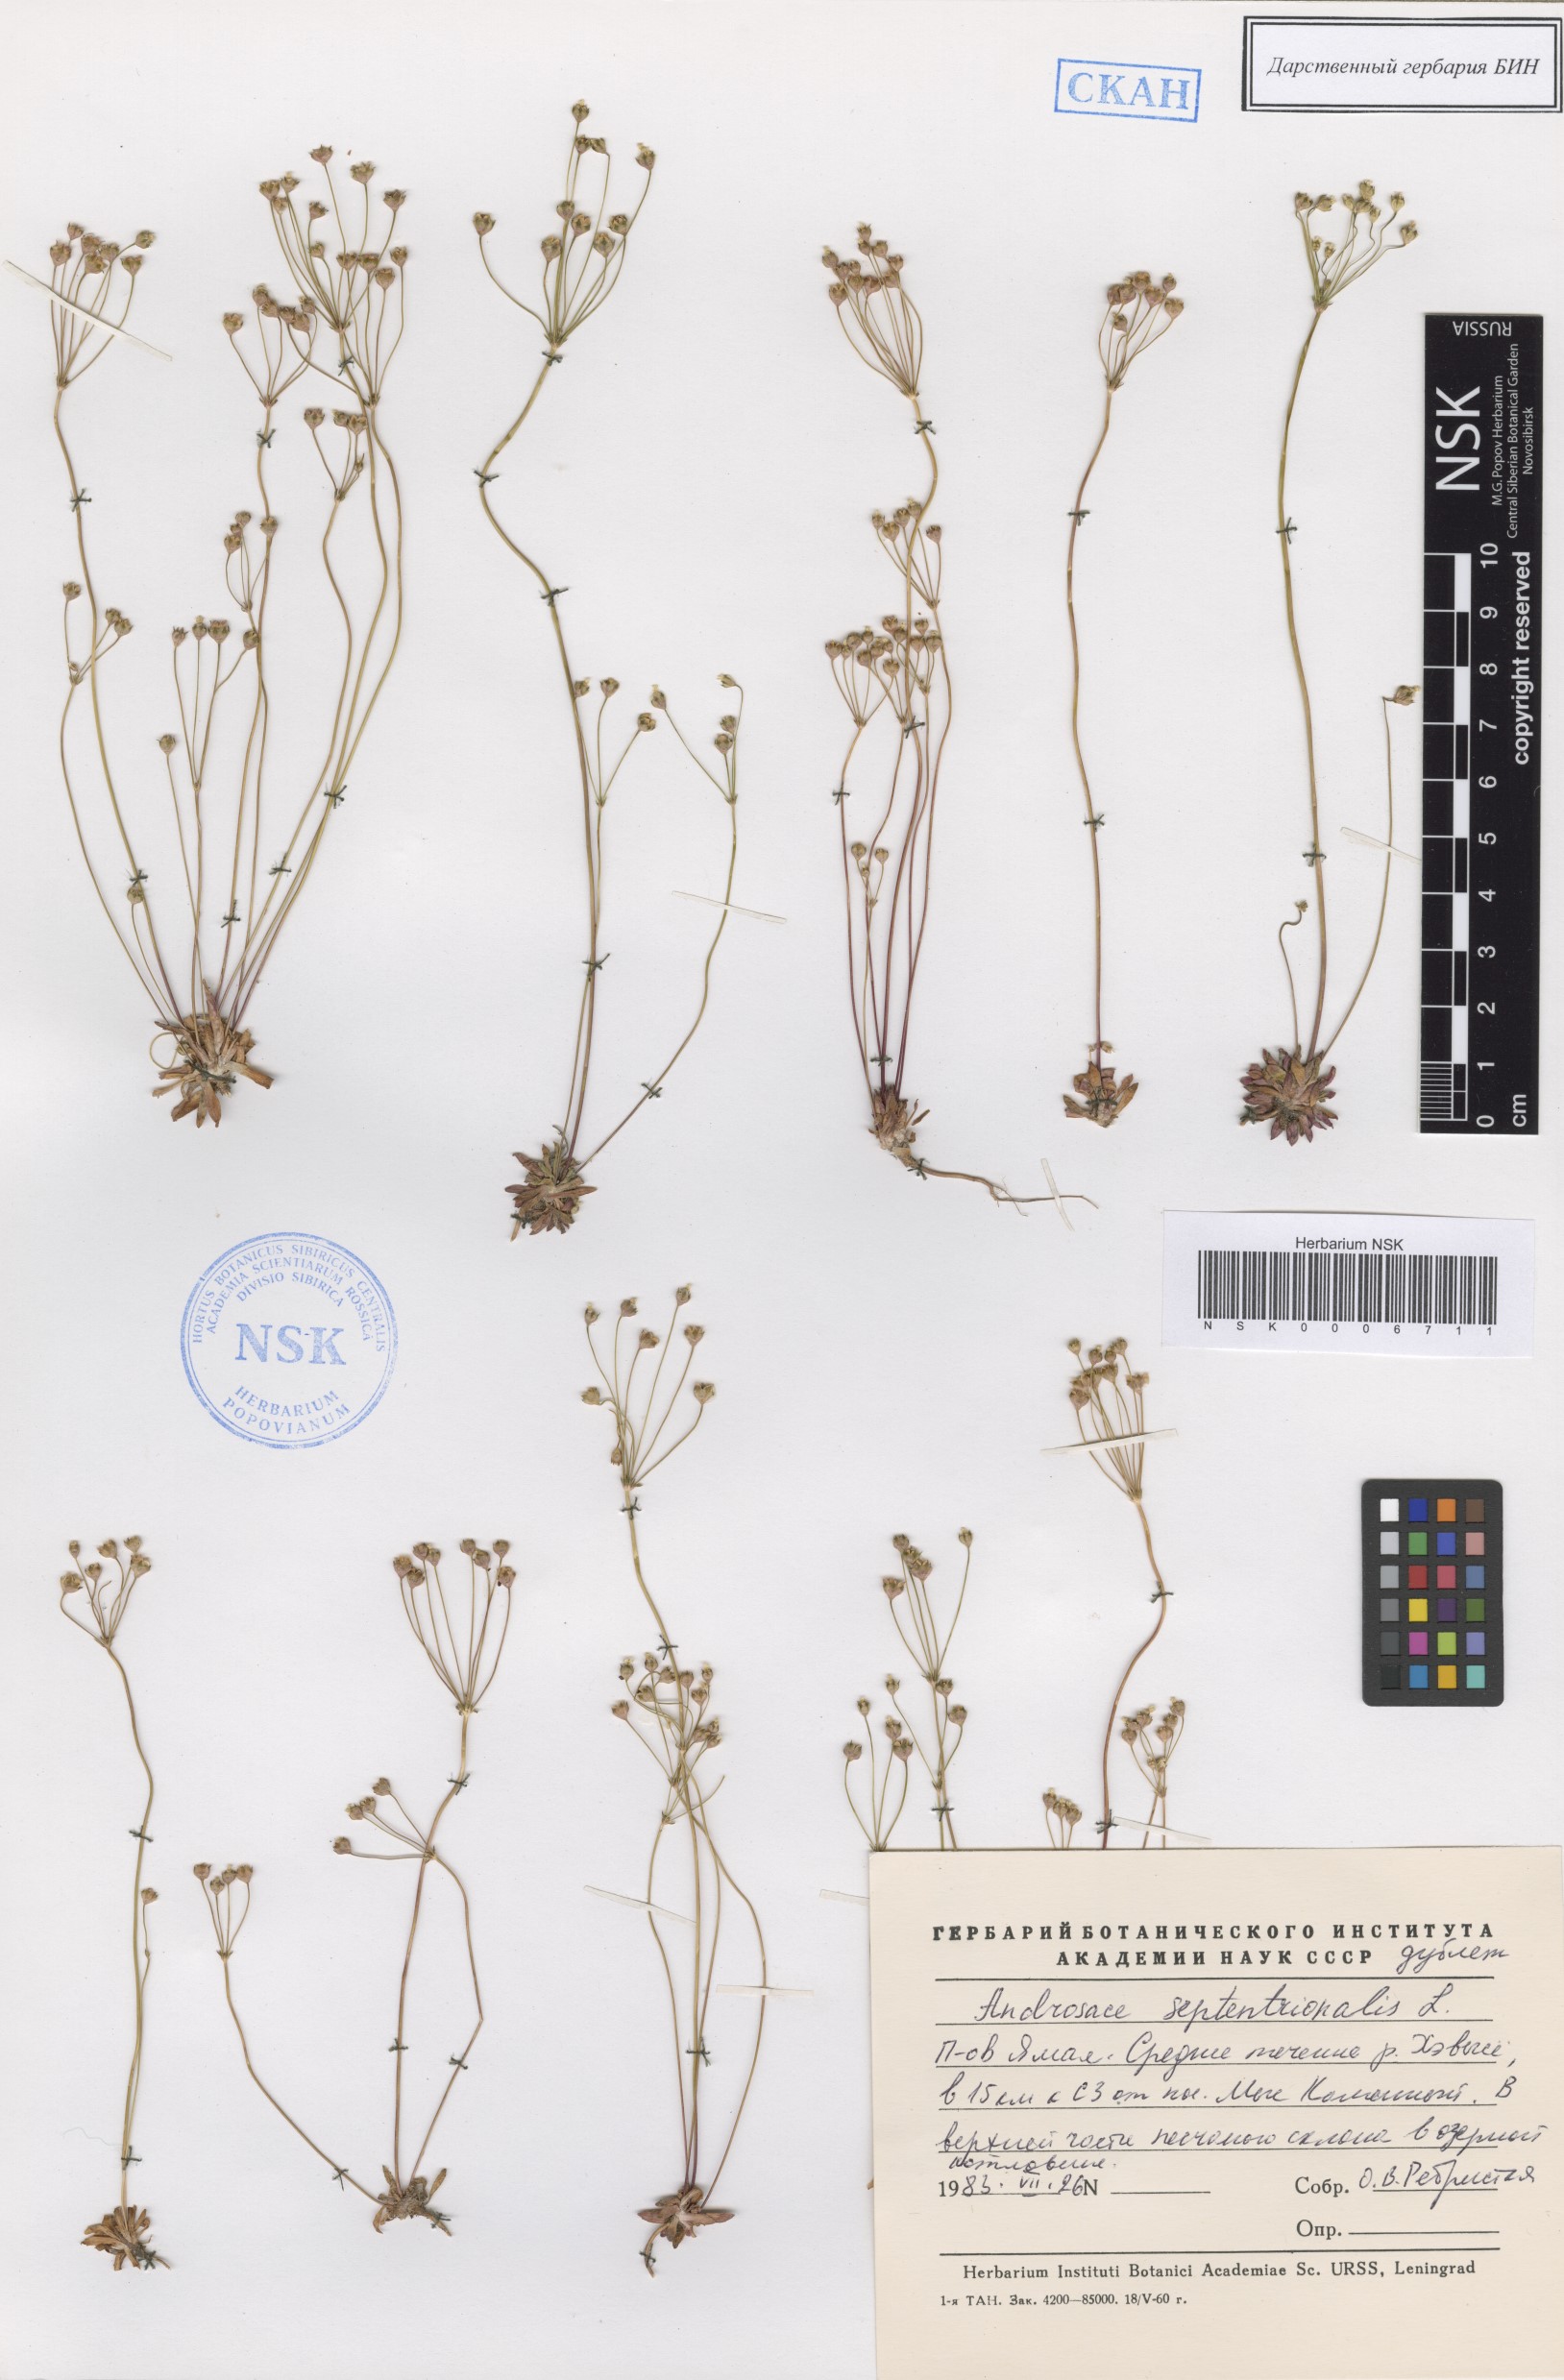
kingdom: Plantae
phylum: Tracheophyta
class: Magnoliopsida
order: Ericales
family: Primulaceae
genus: Androsace
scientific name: Androsace septentrionalis
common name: Hairy northern fairy-candelabra
